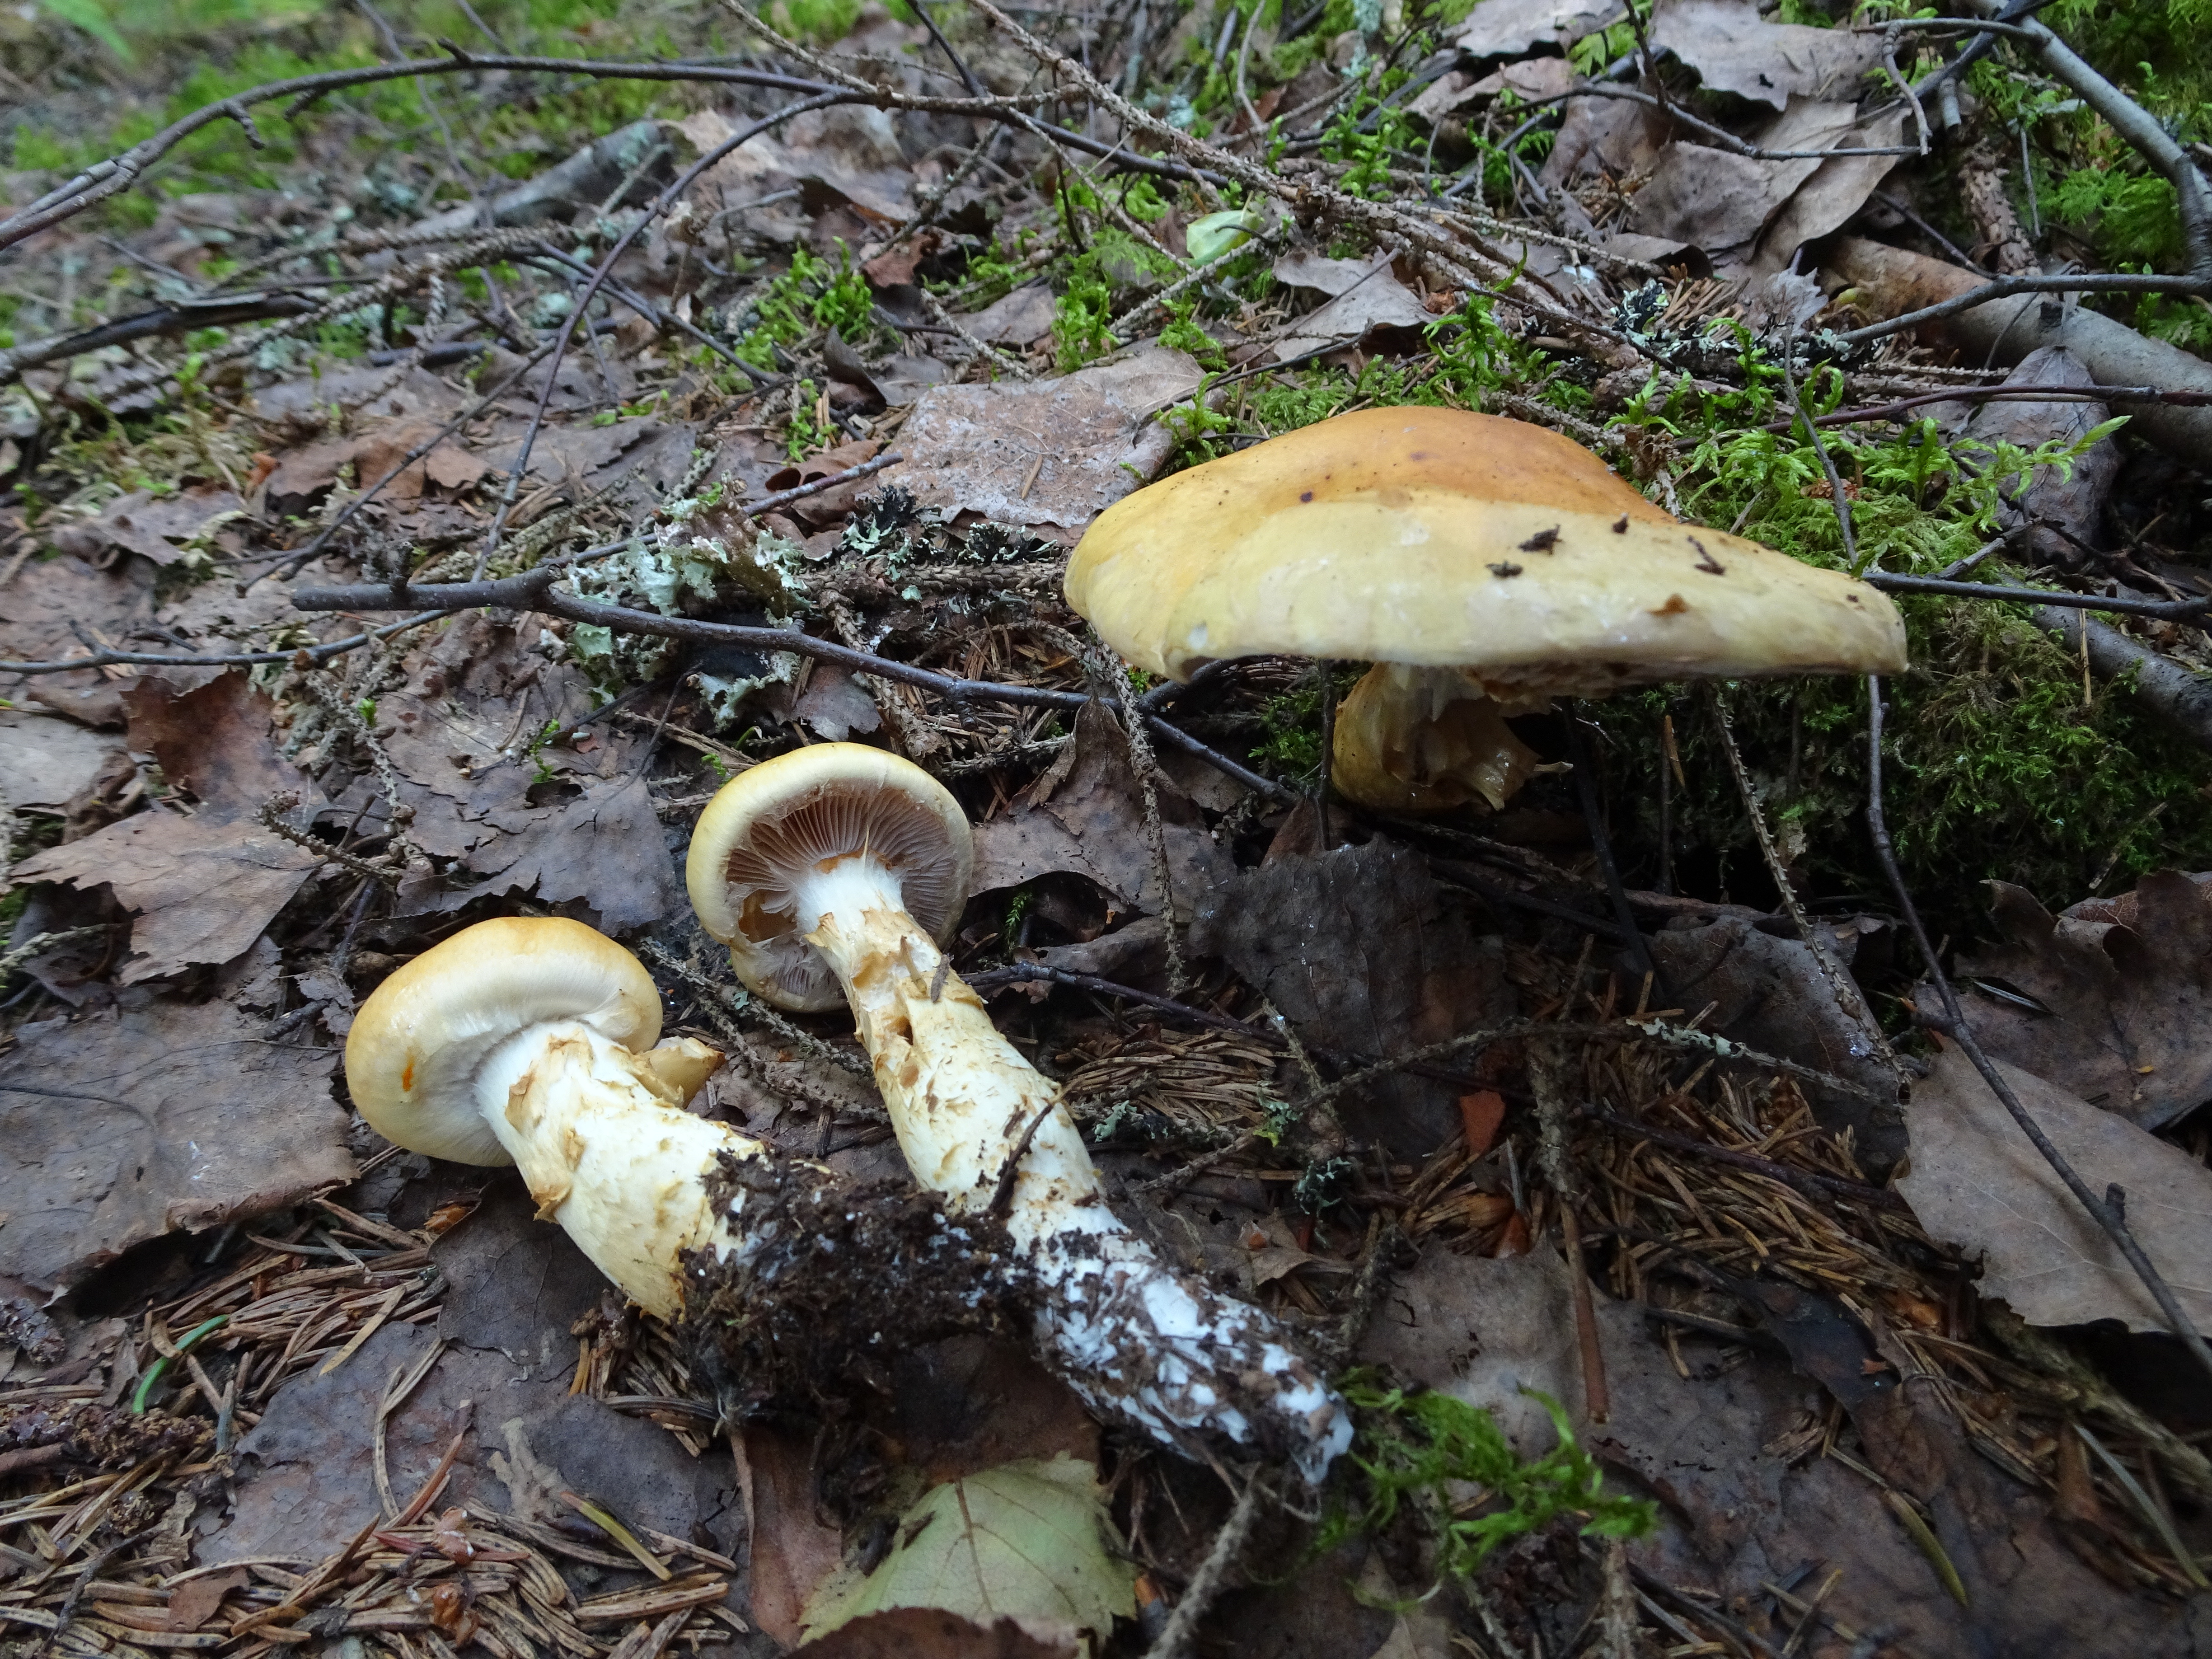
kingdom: Fungi
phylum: Basidiomycota
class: Agaricomycetes
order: Agaricales
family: Cortinariaceae
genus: Phlegmacium
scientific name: Phlegmacium triumphans
